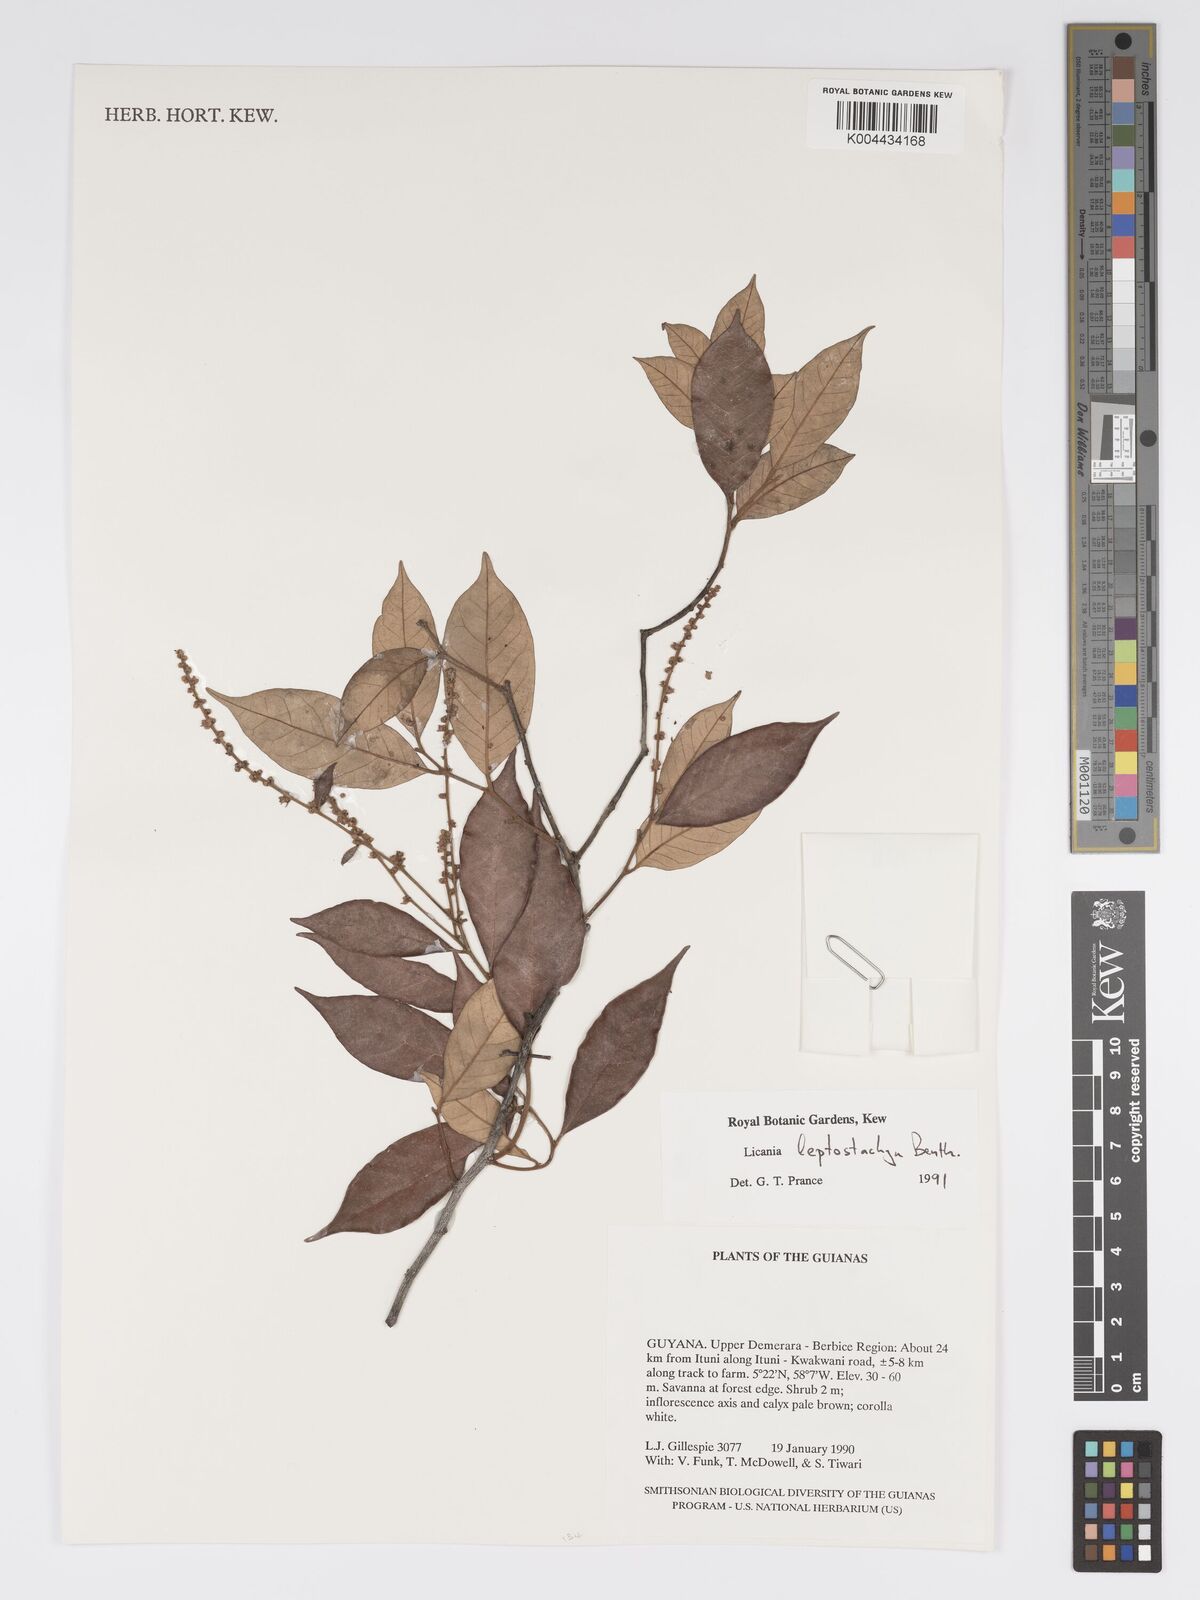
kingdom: Plantae
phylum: Tracheophyta
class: Magnoliopsida
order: Malpighiales
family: Chrysobalanaceae
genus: Licania
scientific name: Licania leptostachya
